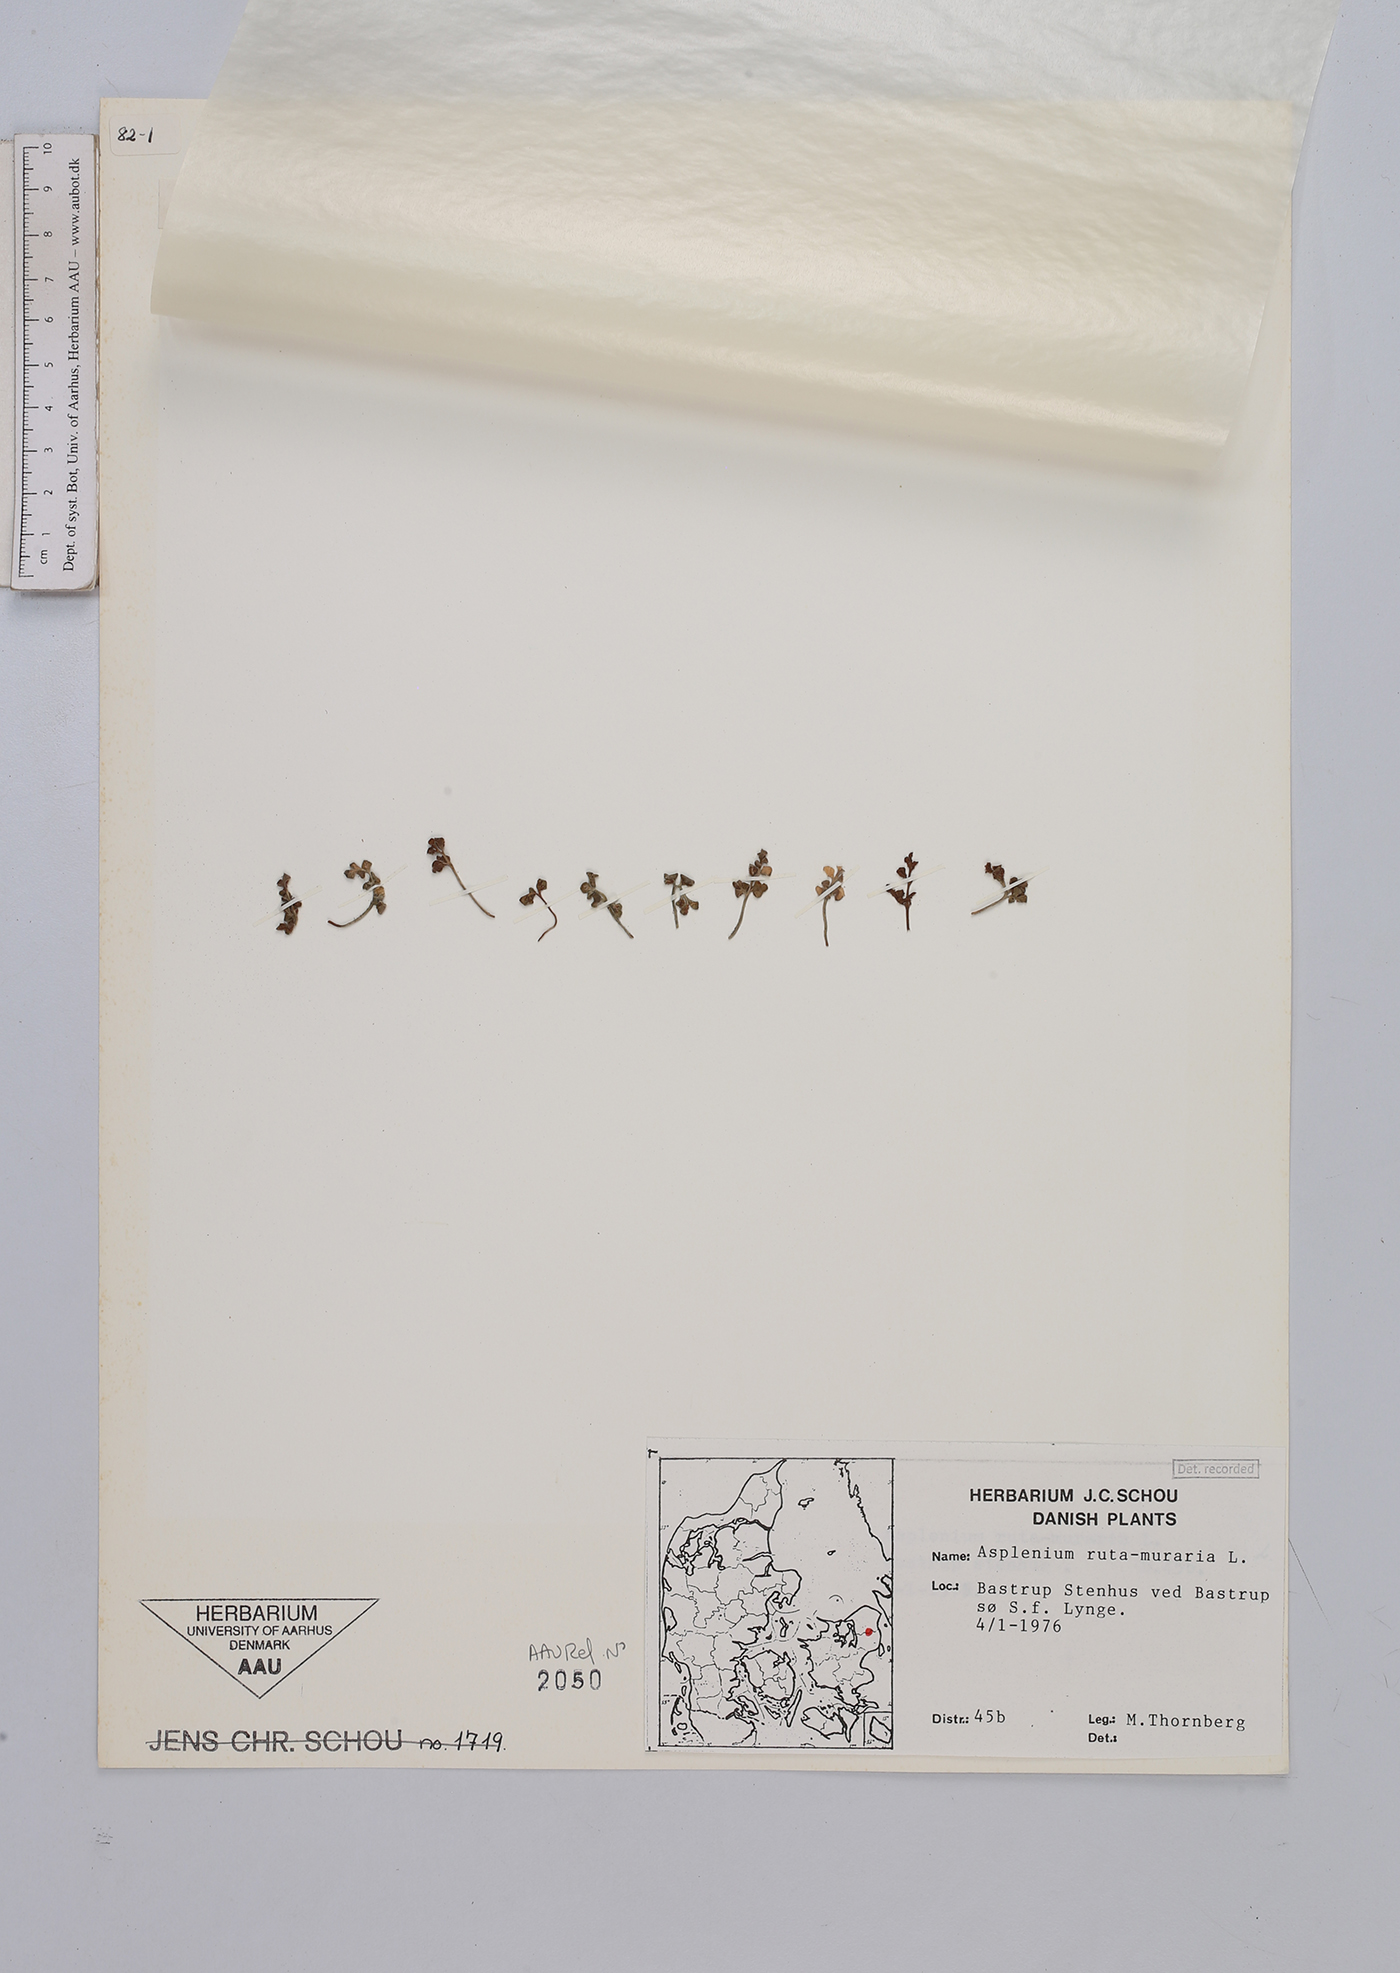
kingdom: Plantae
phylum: Tracheophyta
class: Polypodiopsida
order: Polypodiales
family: Aspleniaceae
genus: Asplenium
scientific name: Asplenium ruta-muraria
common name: Wall-rue
